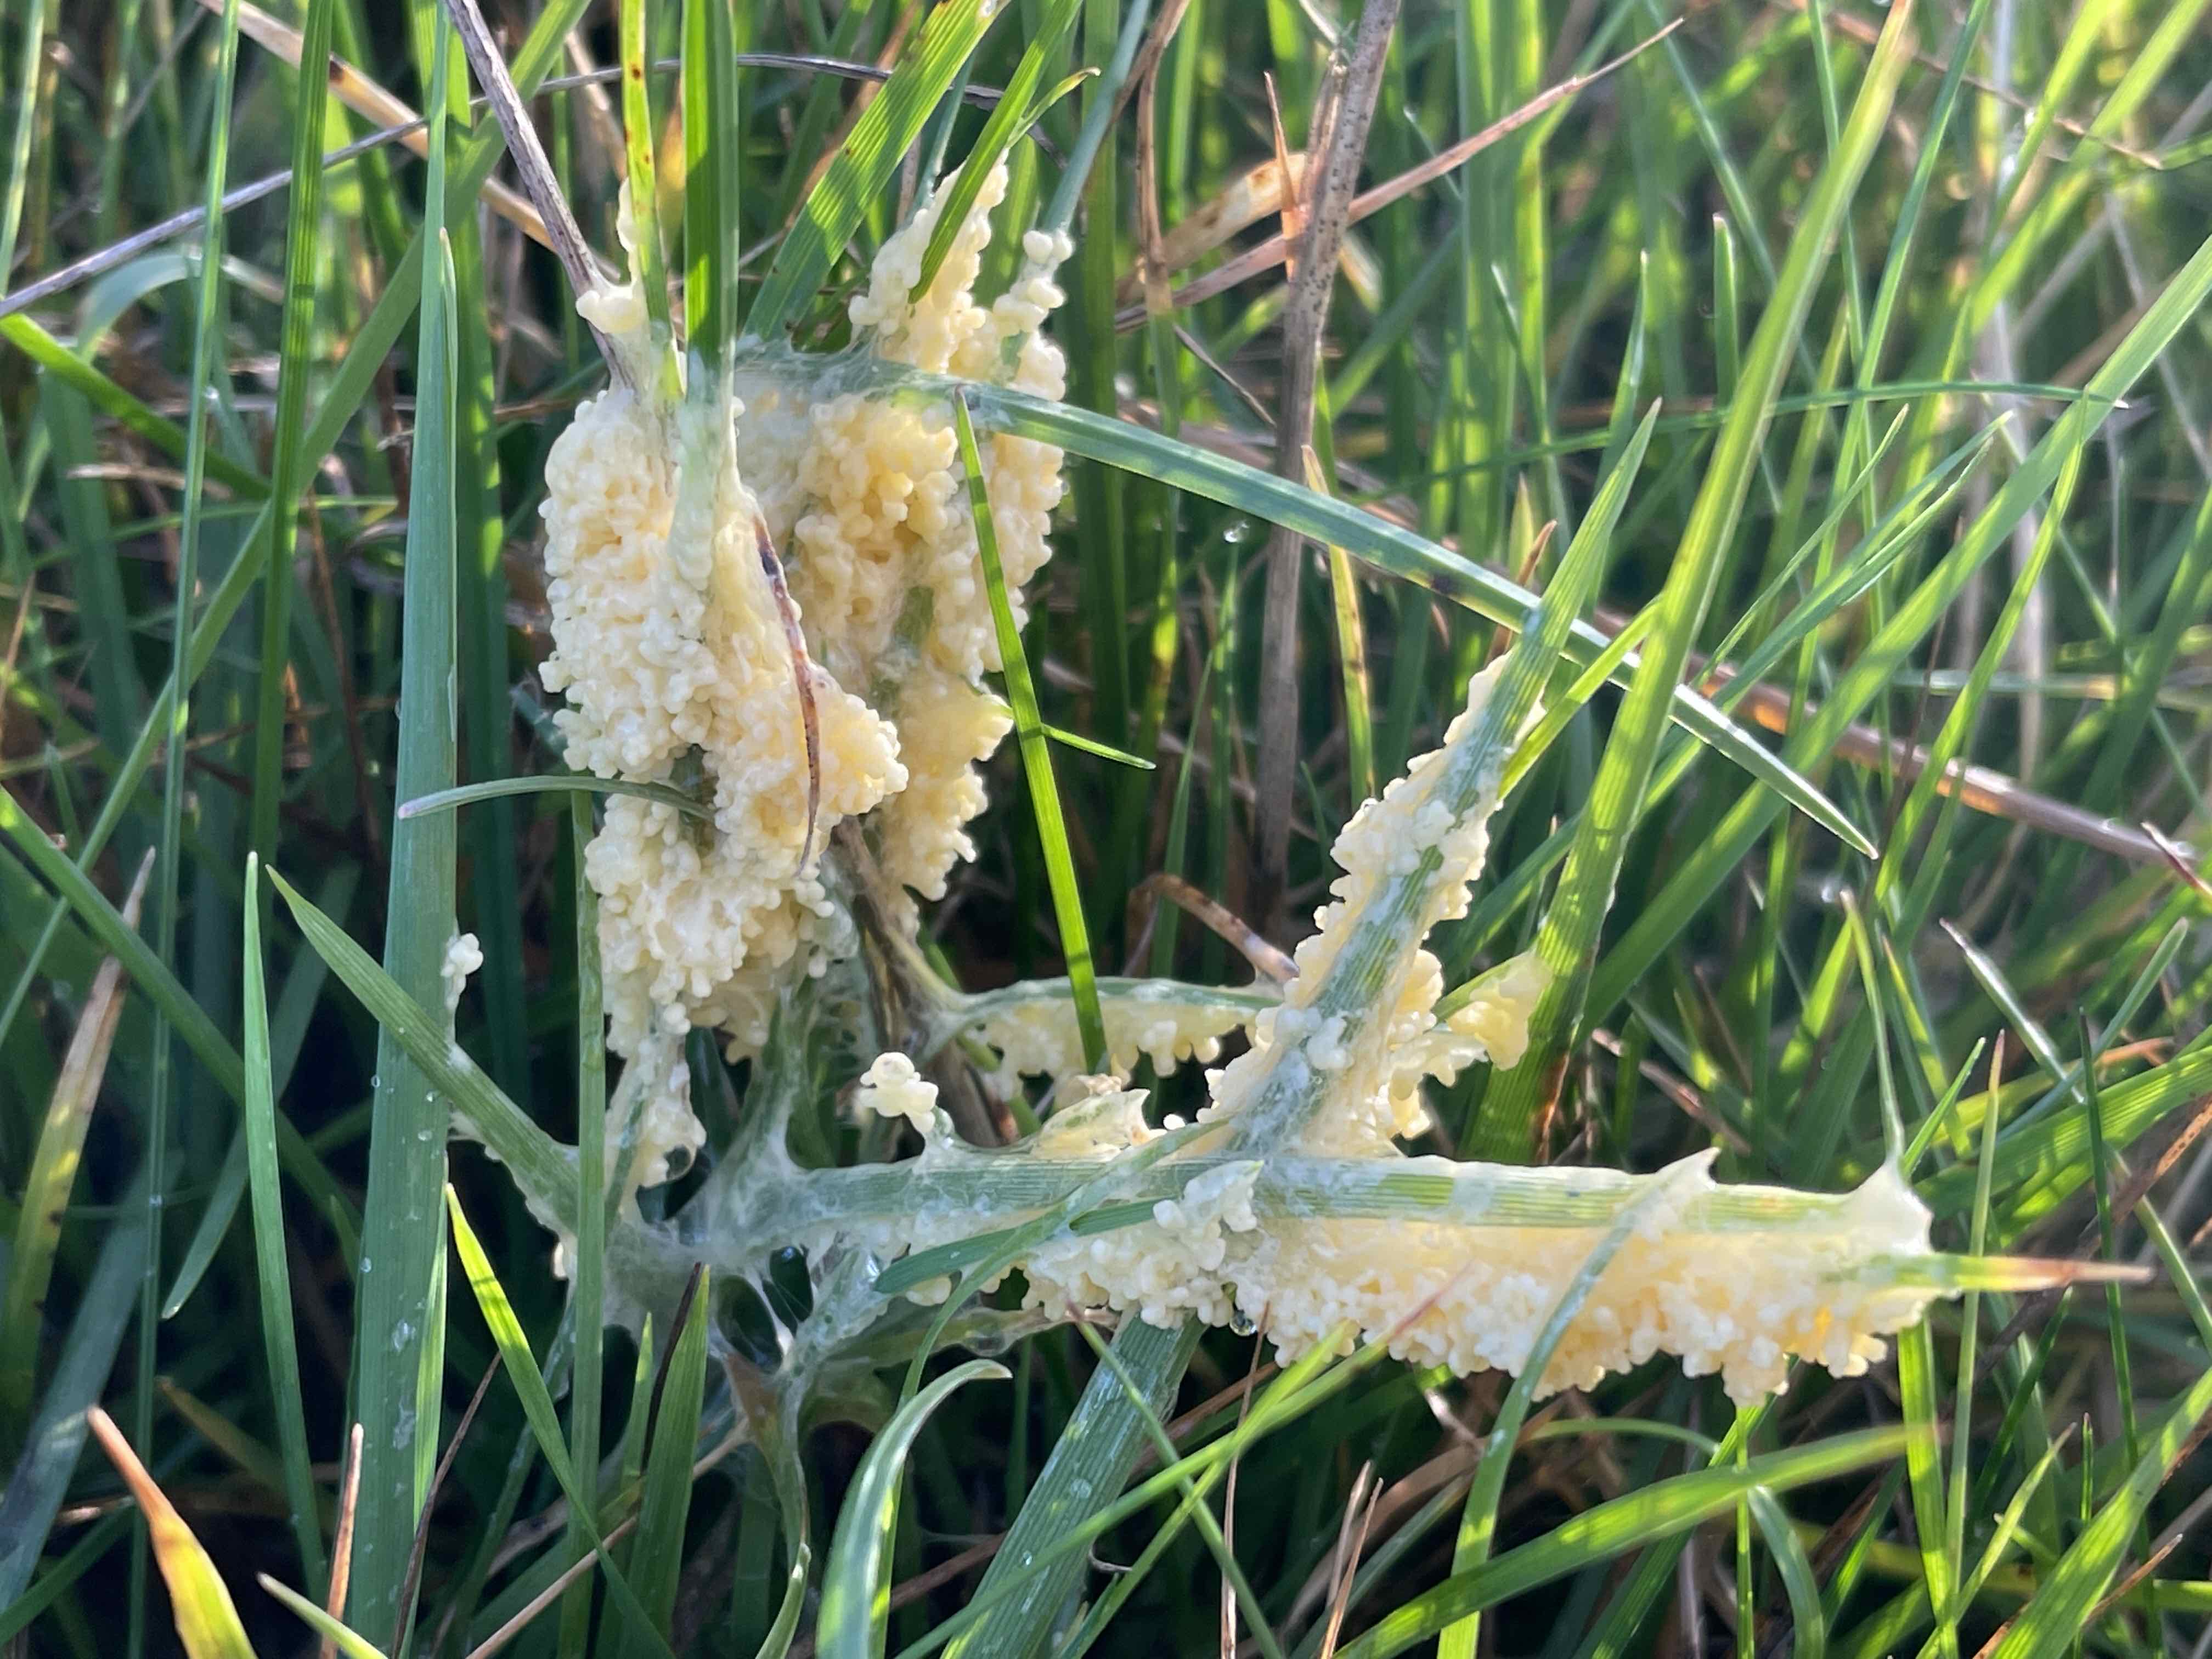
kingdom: Protozoa
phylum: Mycetozoa
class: Myxomycetes
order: Physarales
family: Physaraceae
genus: Didymium
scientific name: Didymium
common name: urteskum
